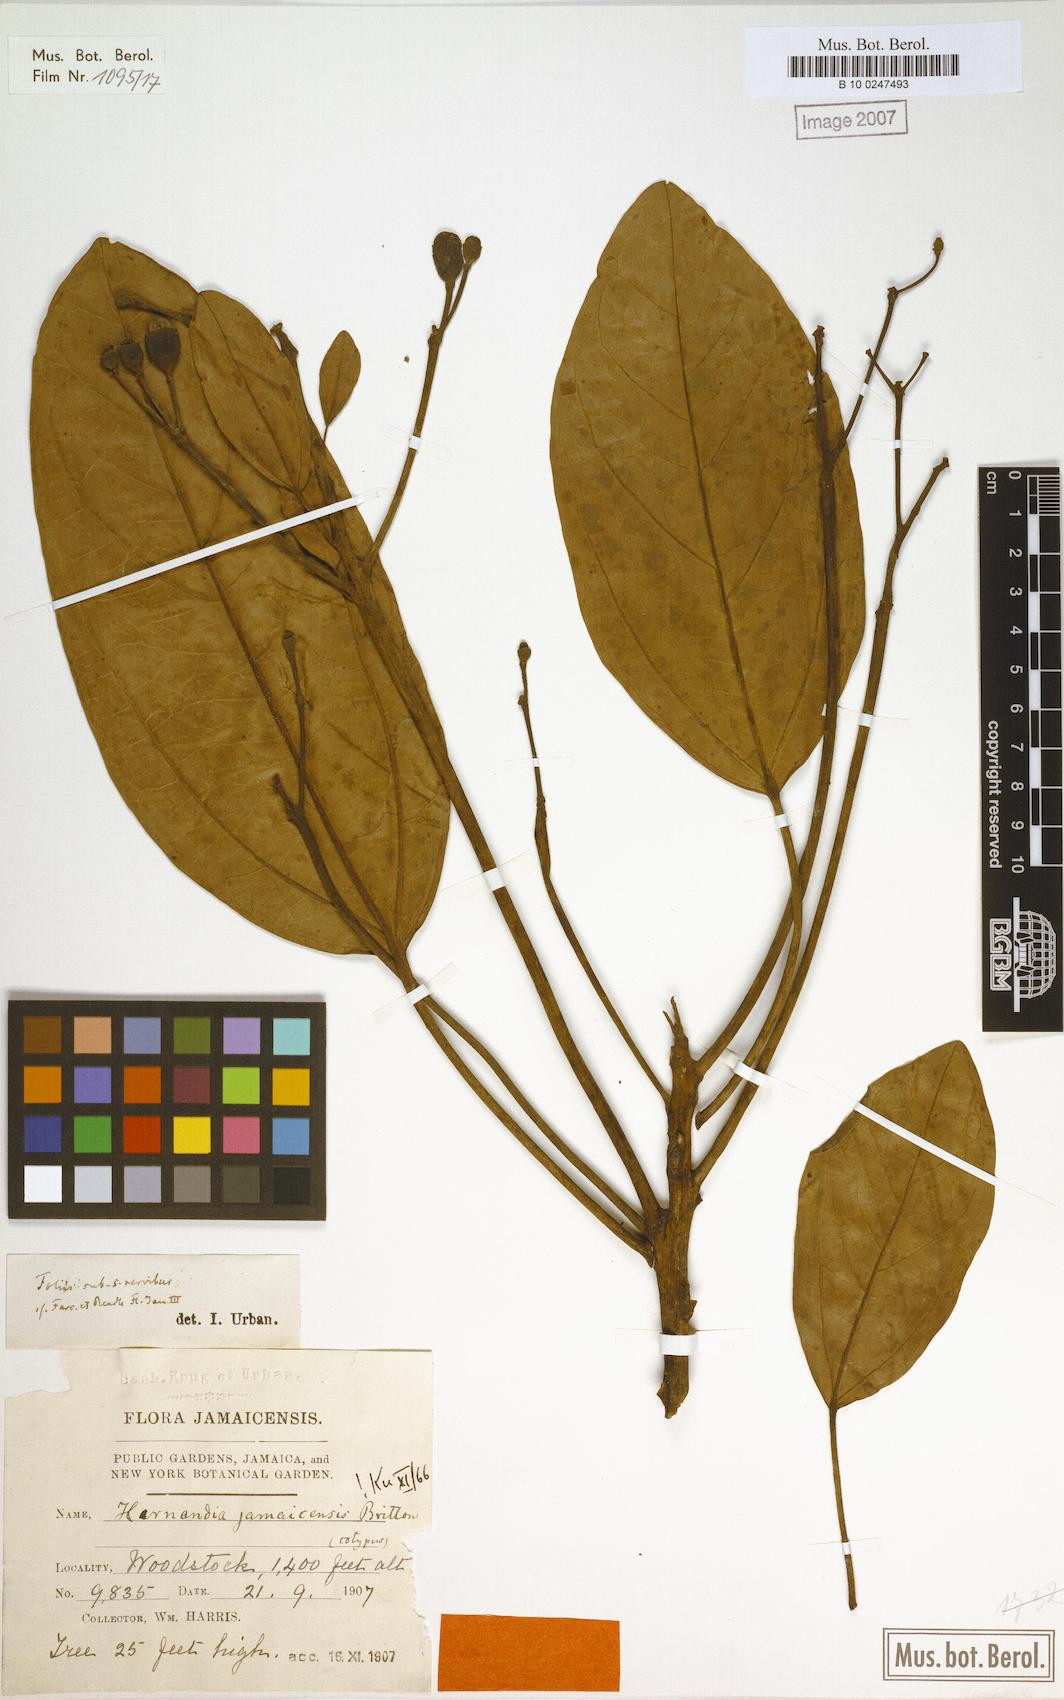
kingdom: Plantae
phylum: Tracheophyta
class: Magnoliopsida
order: Laurales
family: Hernandiaceae
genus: Hernandia
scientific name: Hernandia jamaicensis
